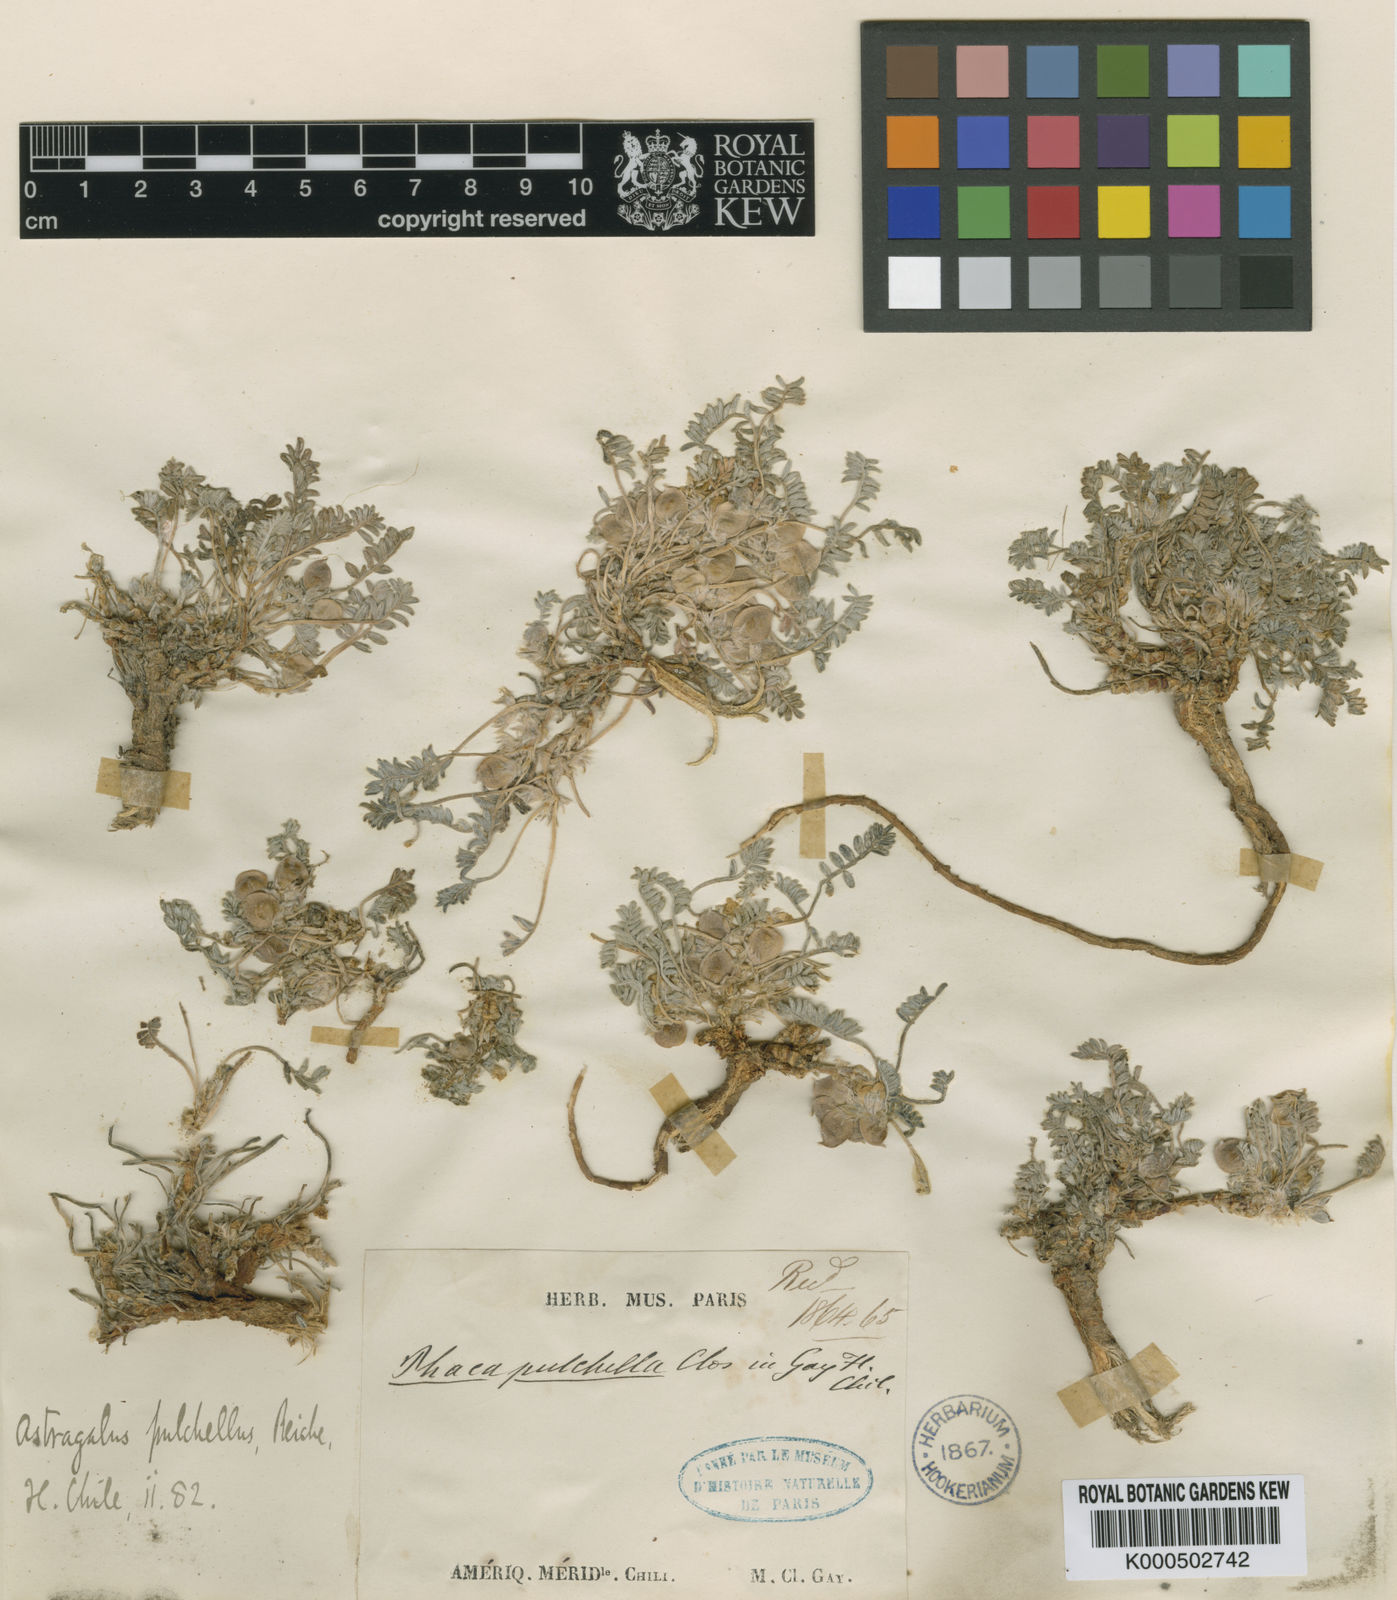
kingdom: Plantae
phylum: Tracheophyta
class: Magnoliopsida
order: Fabales
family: Fabaceae
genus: Astragalus
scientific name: Astragalus
